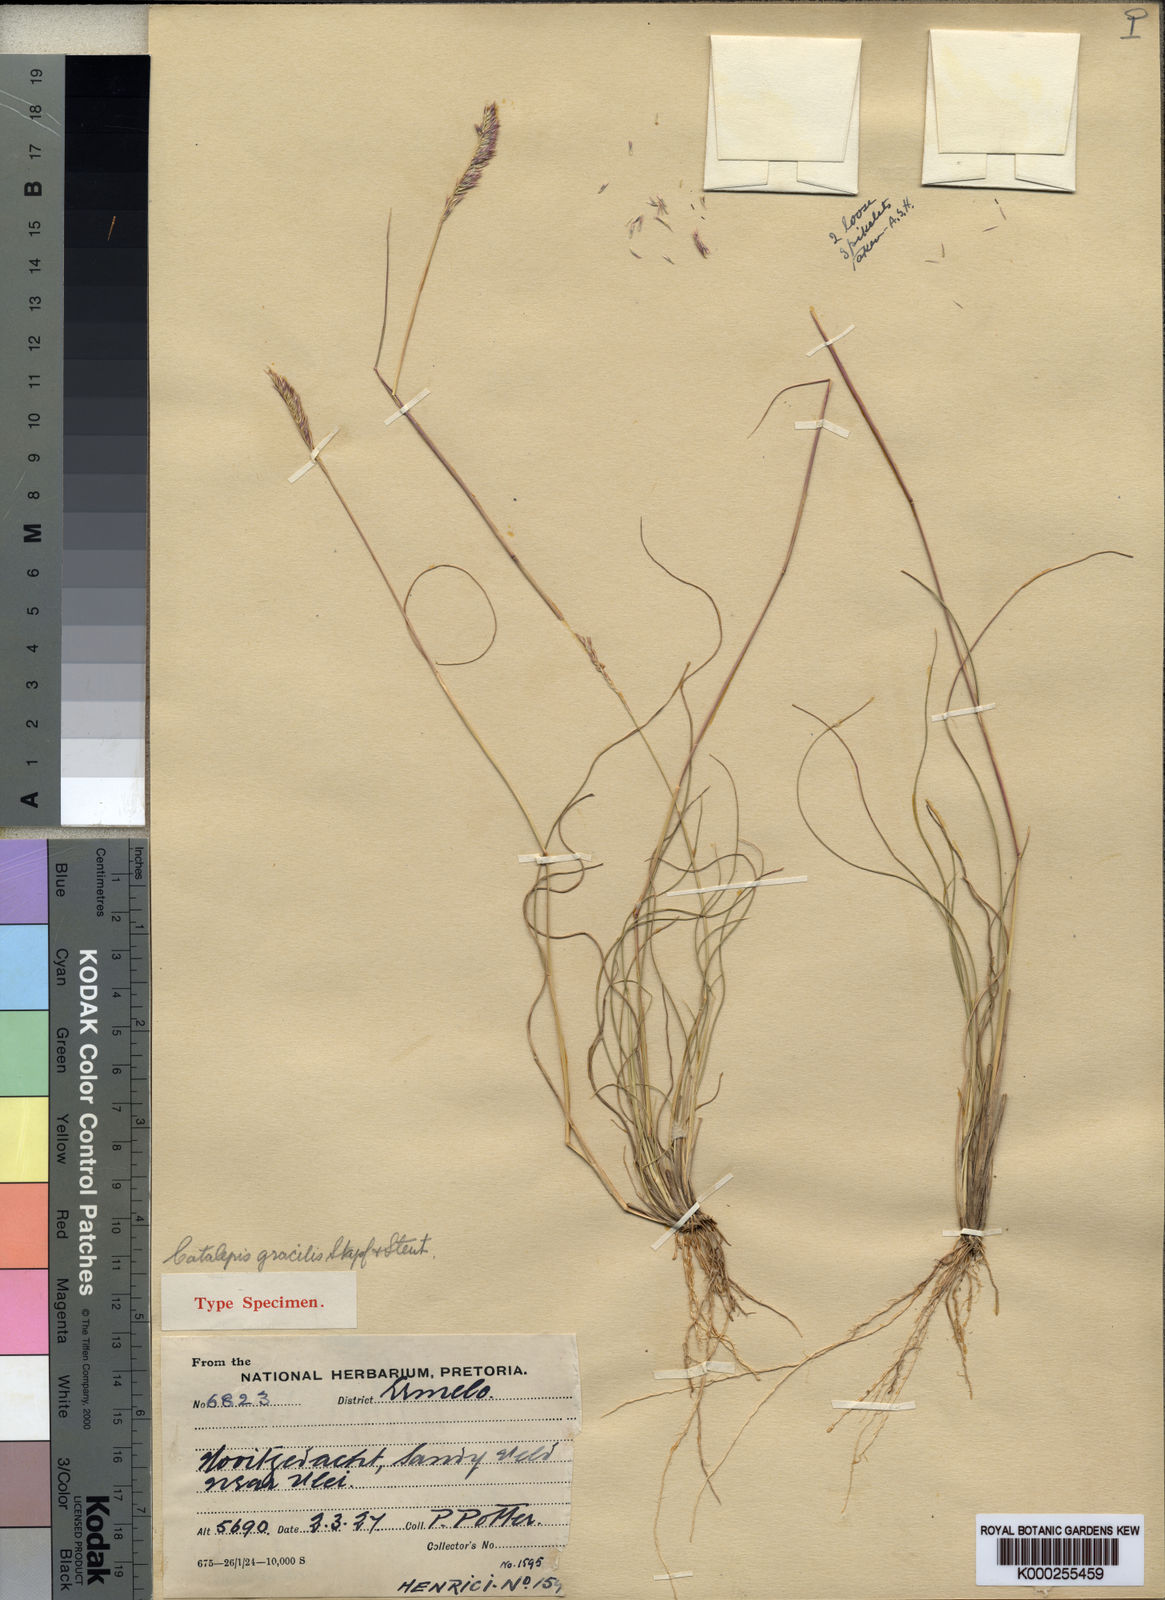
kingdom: Plantae
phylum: Tracheophyta
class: Liliopsida
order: Poales
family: Poaceae
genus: Catalepis
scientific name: Catalepis gracilis
